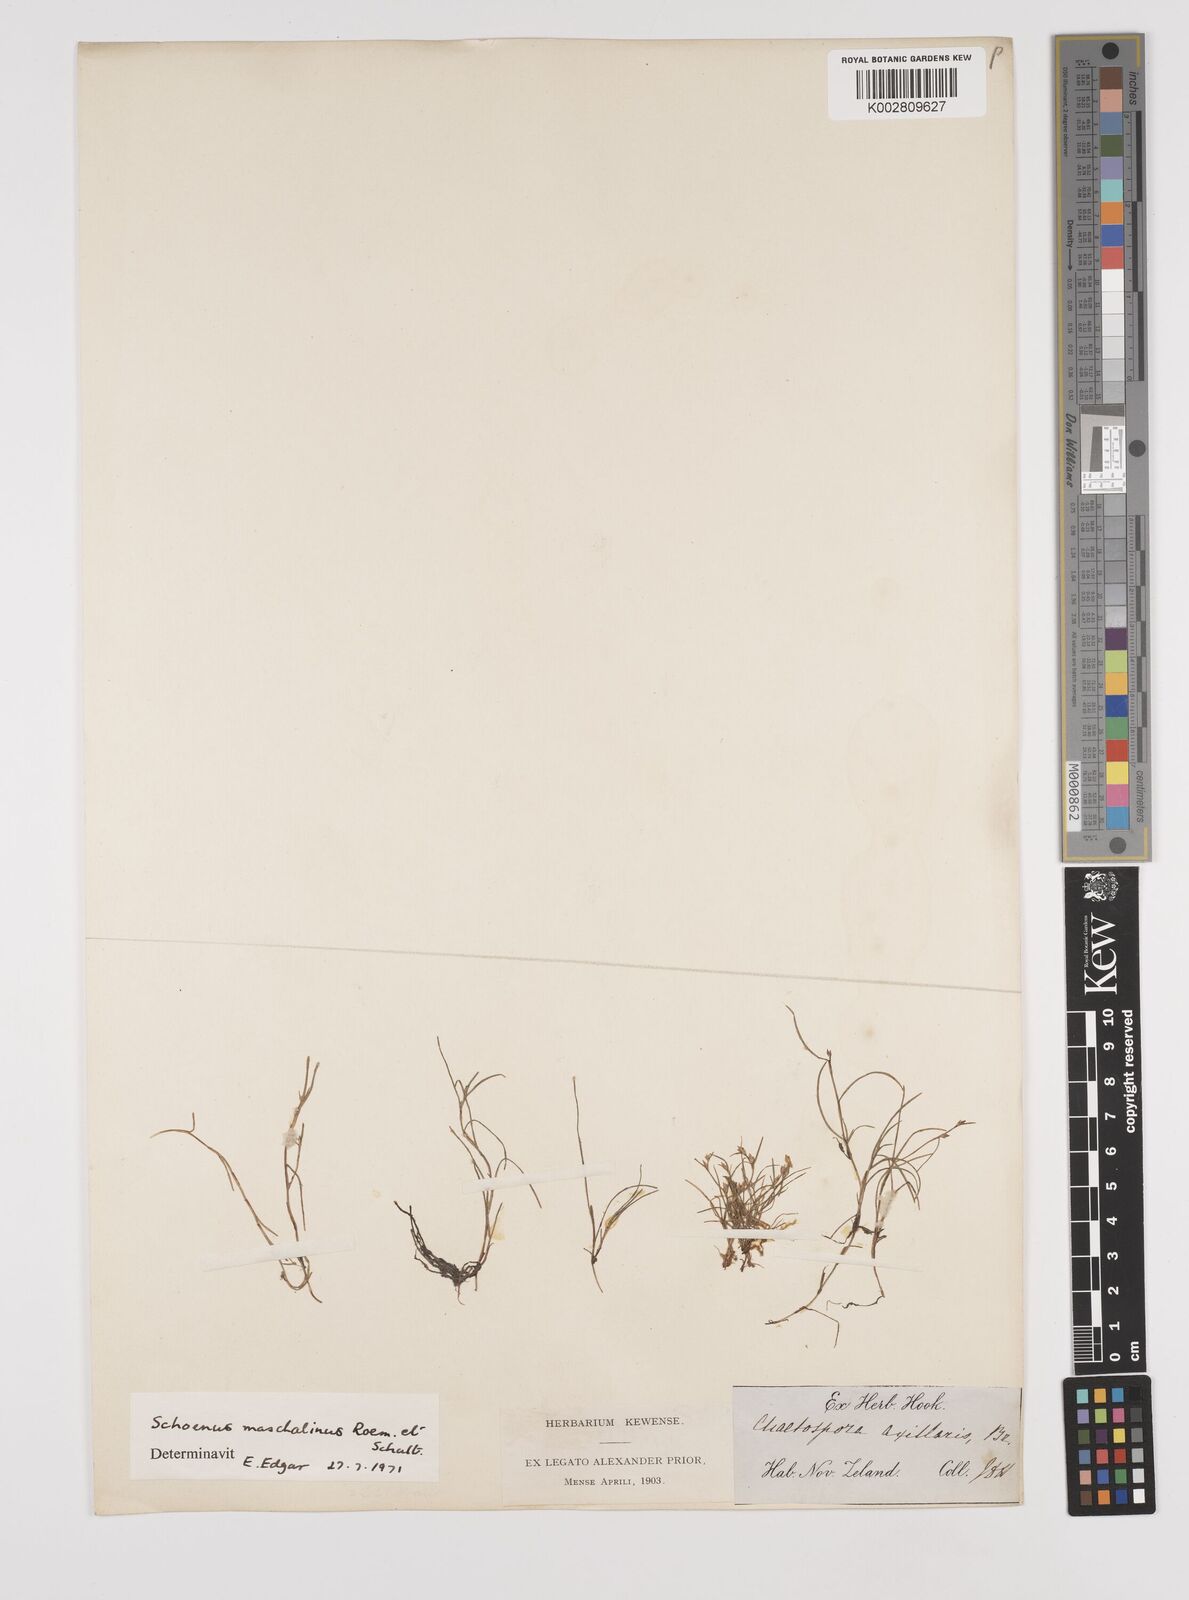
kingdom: Plantae
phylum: Tracheophyta
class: Liliopsida
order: Poales
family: Cyperaceae
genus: Schoenus
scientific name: Schoenus maschalinus
